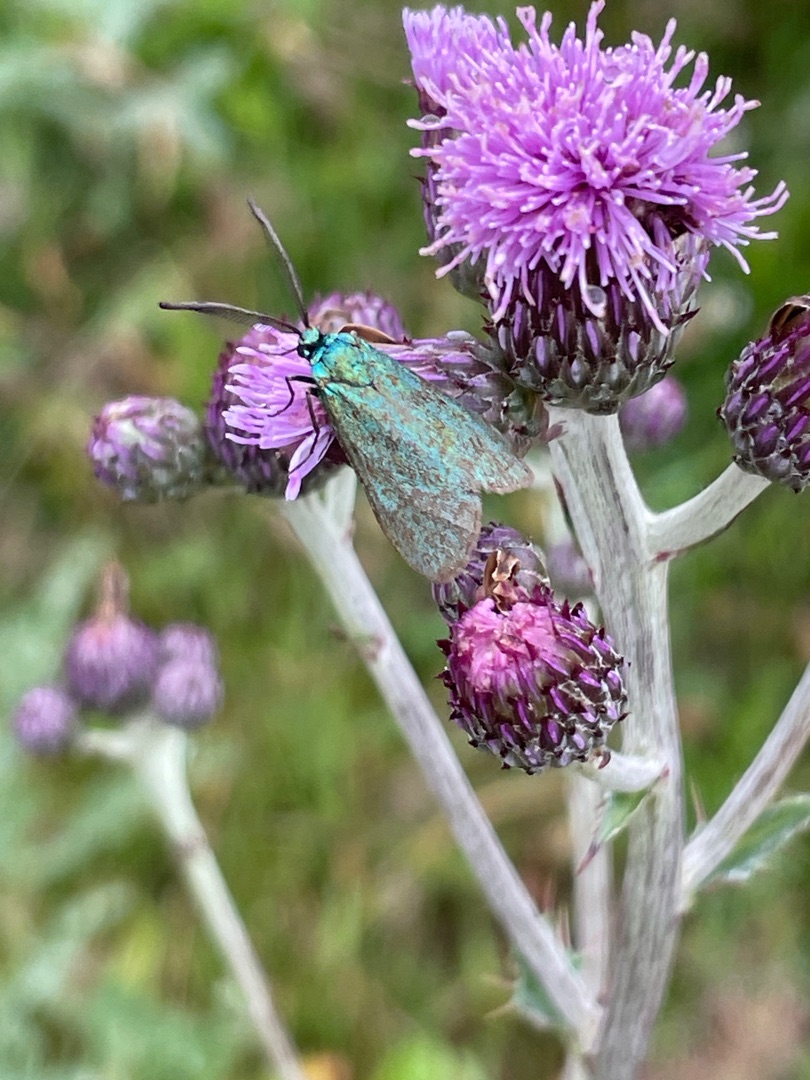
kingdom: Animalia
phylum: Arthropoda
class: Insecta
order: Lepidoptera
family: Zygaenidae
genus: Adscita
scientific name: Adscita statices
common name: Metalvinge
